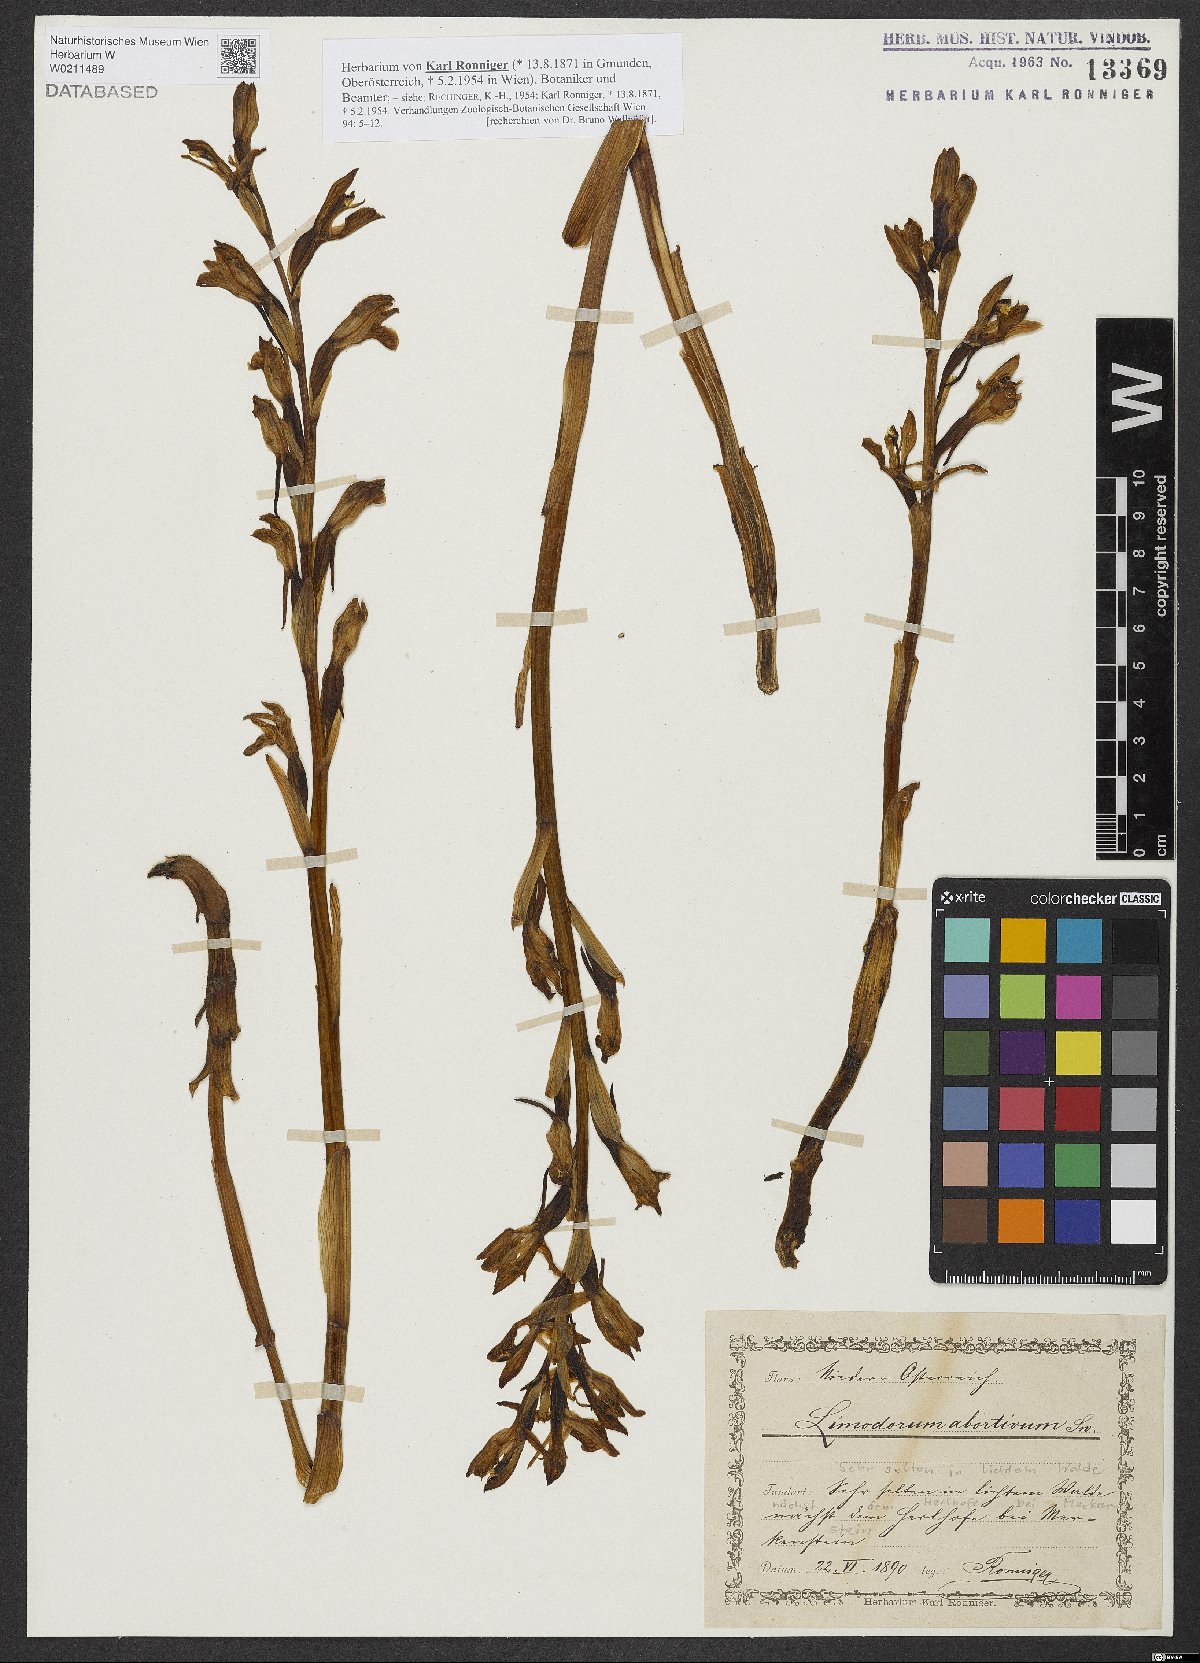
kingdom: Plantae
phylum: Tracheophyta
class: Liliopsida
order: Asparagales
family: Orchidaceae
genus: Limodorum
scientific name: Limodorum abortivum
